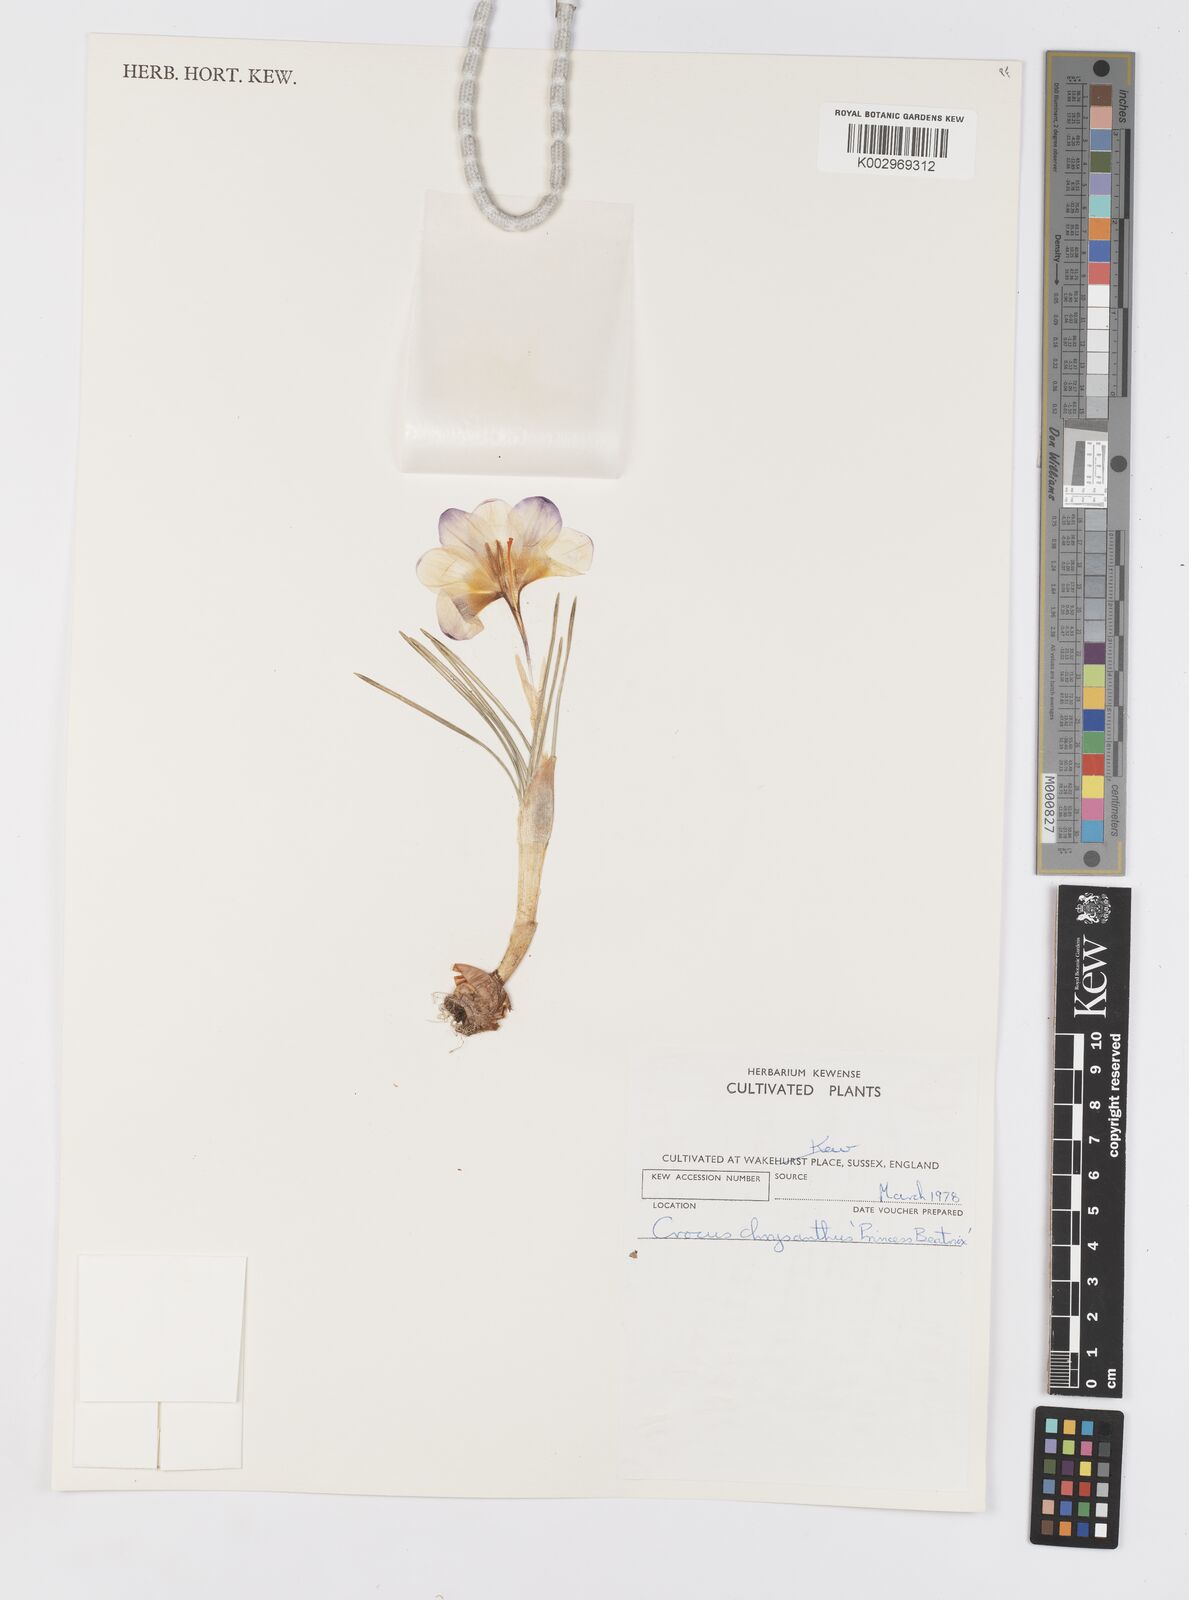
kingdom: Plantae
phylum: Tracheophyta
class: Liliopsida
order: Asparagales
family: Iridaceae
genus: Crocus
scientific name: Crocus chrysanthus
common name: Golden crocus
